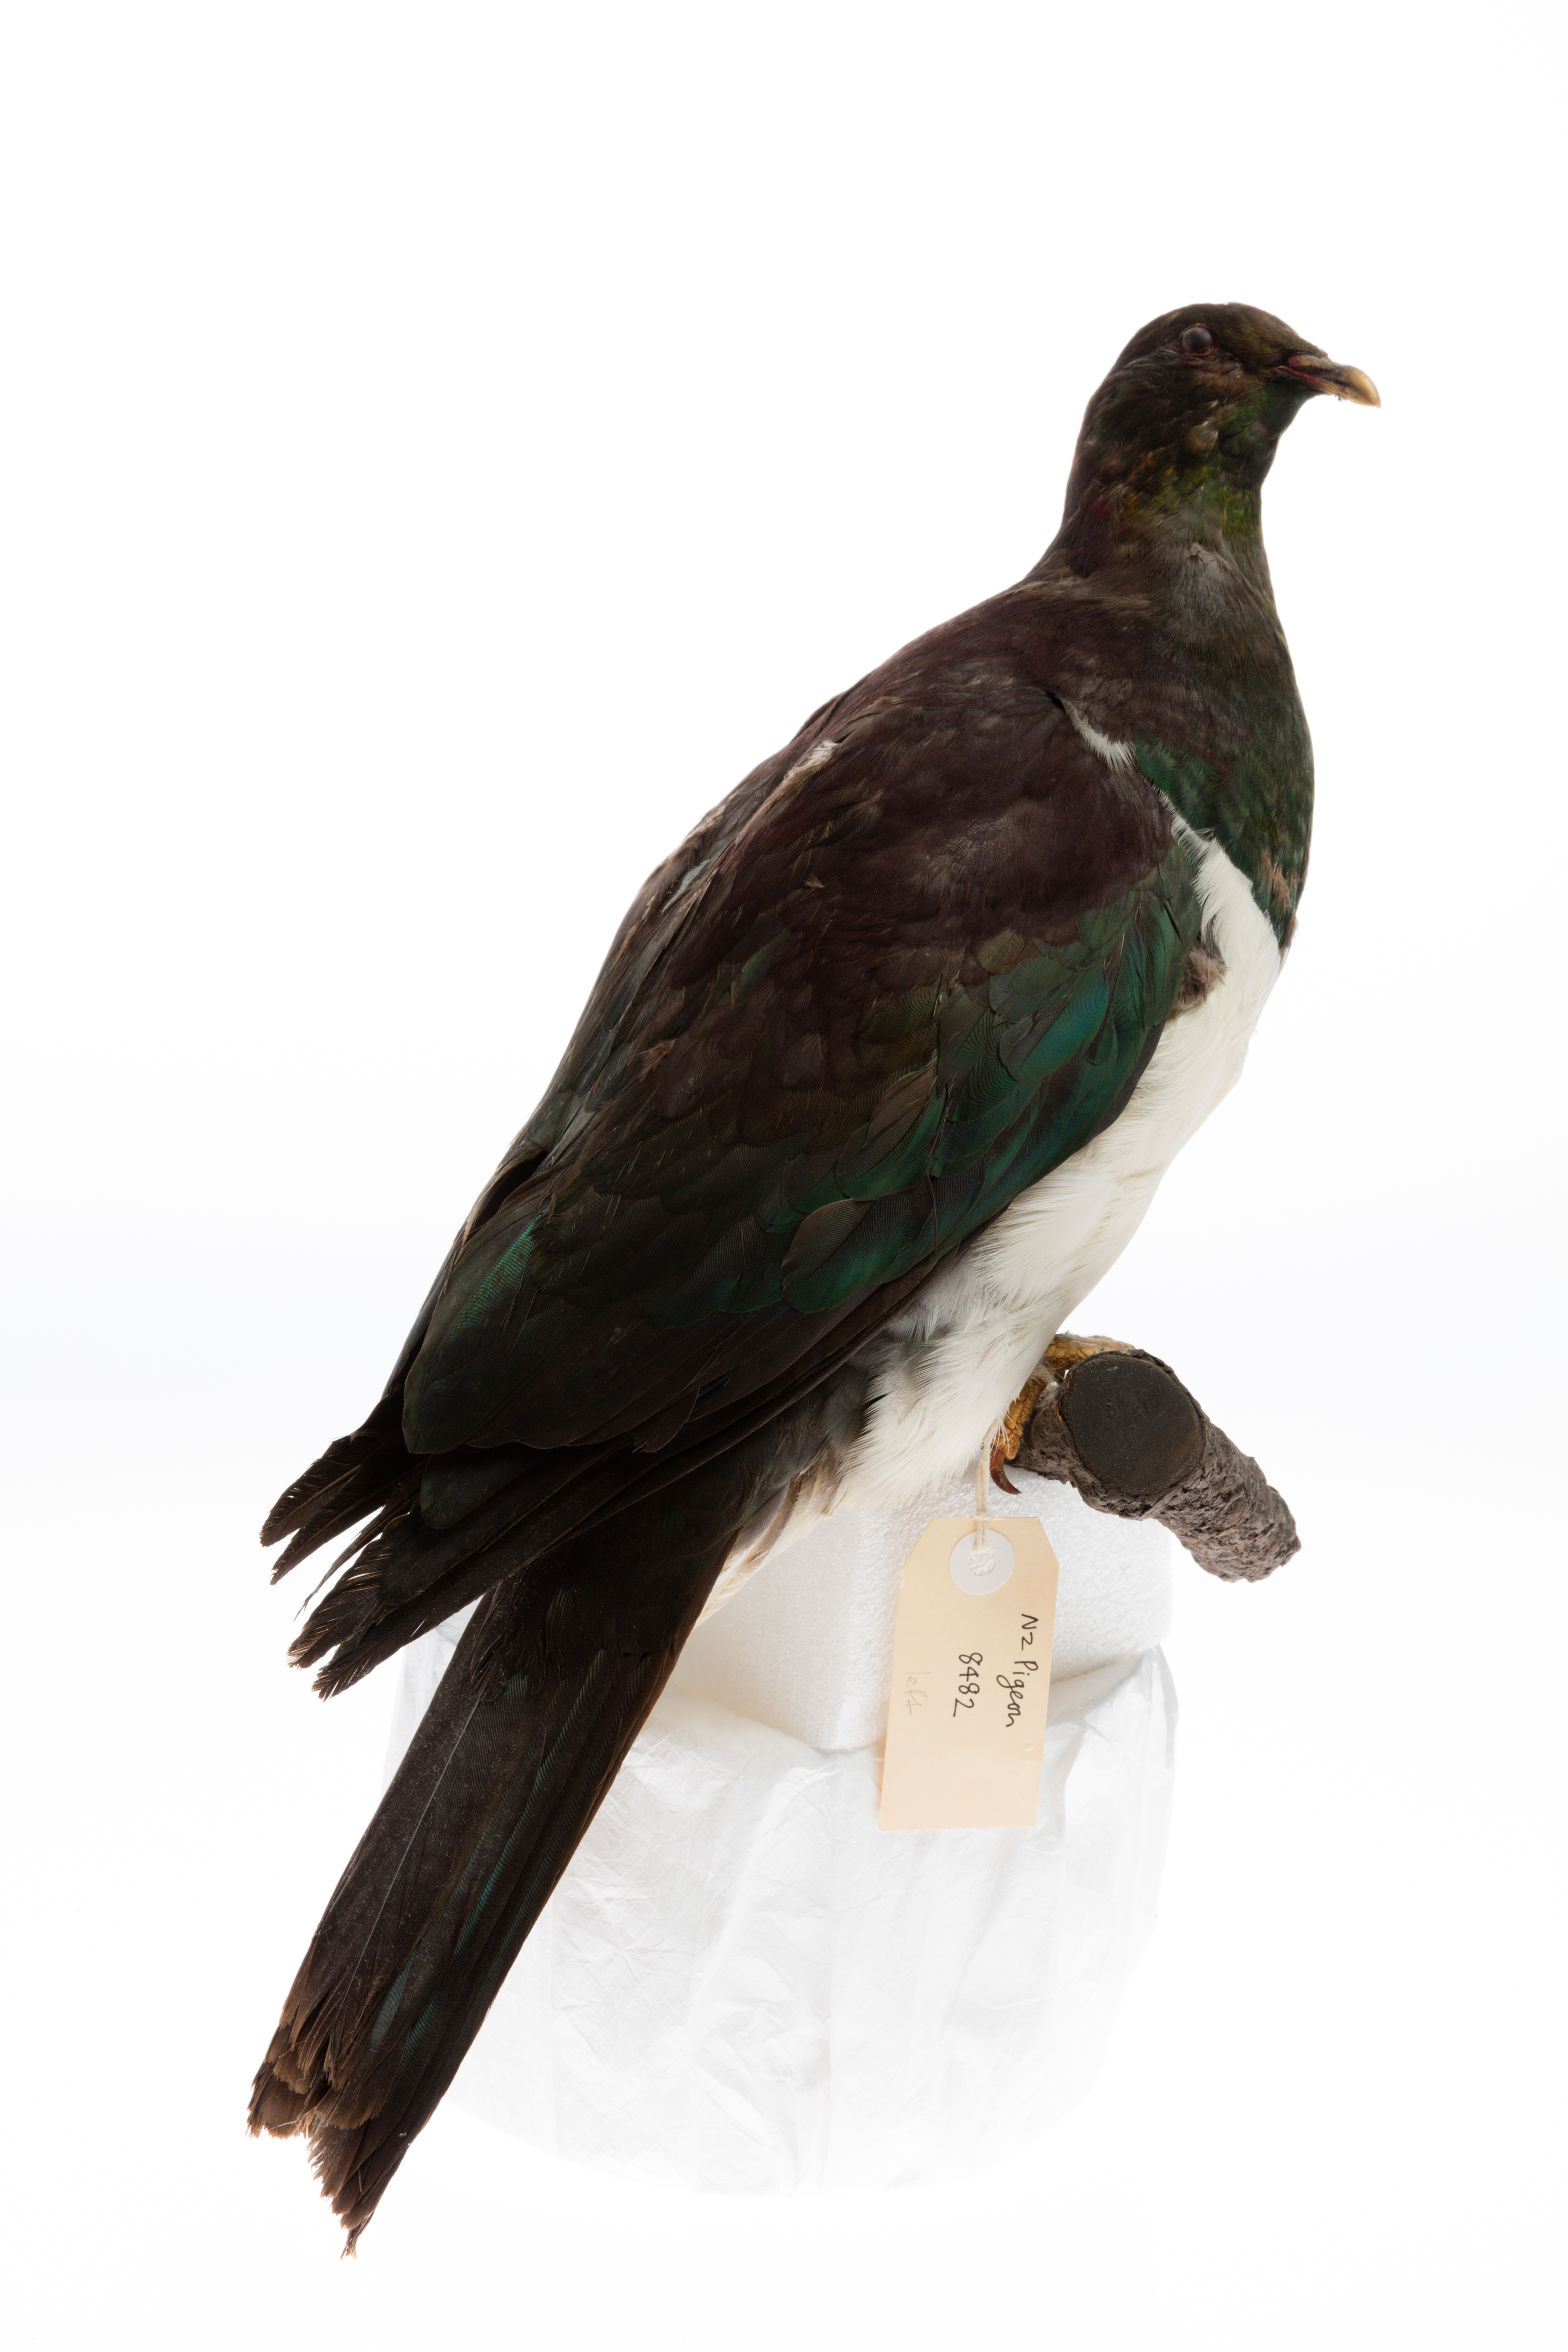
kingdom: Animalia
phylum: Chordata
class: Aves
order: Columbiformes
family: Columbidae
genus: Hemiphaga
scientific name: Hemiphaga novaeseelandiae
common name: New zealand pigeon
